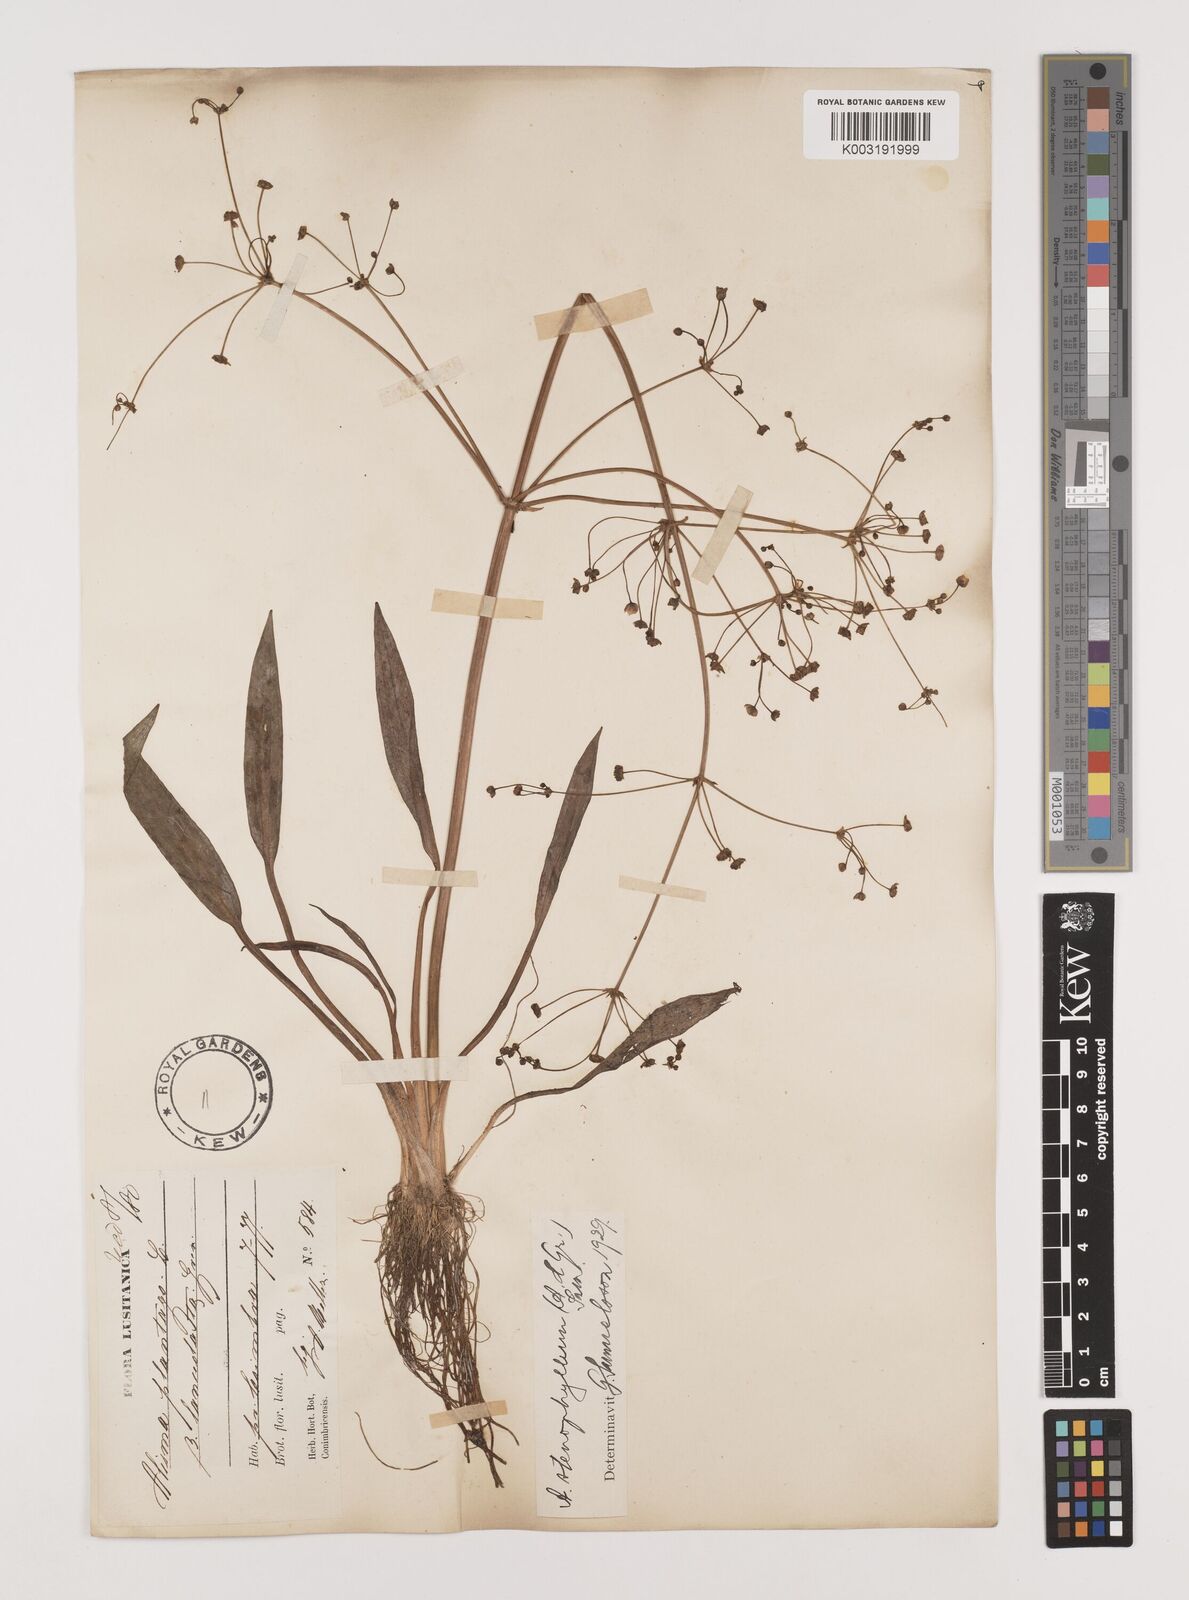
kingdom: Plantae
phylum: Tracheophyta
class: Liliopsida
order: Alismatales
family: Alismataceae
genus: Alisma
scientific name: Alisma lanceolatum
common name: Narrow-leaved water-plantain
